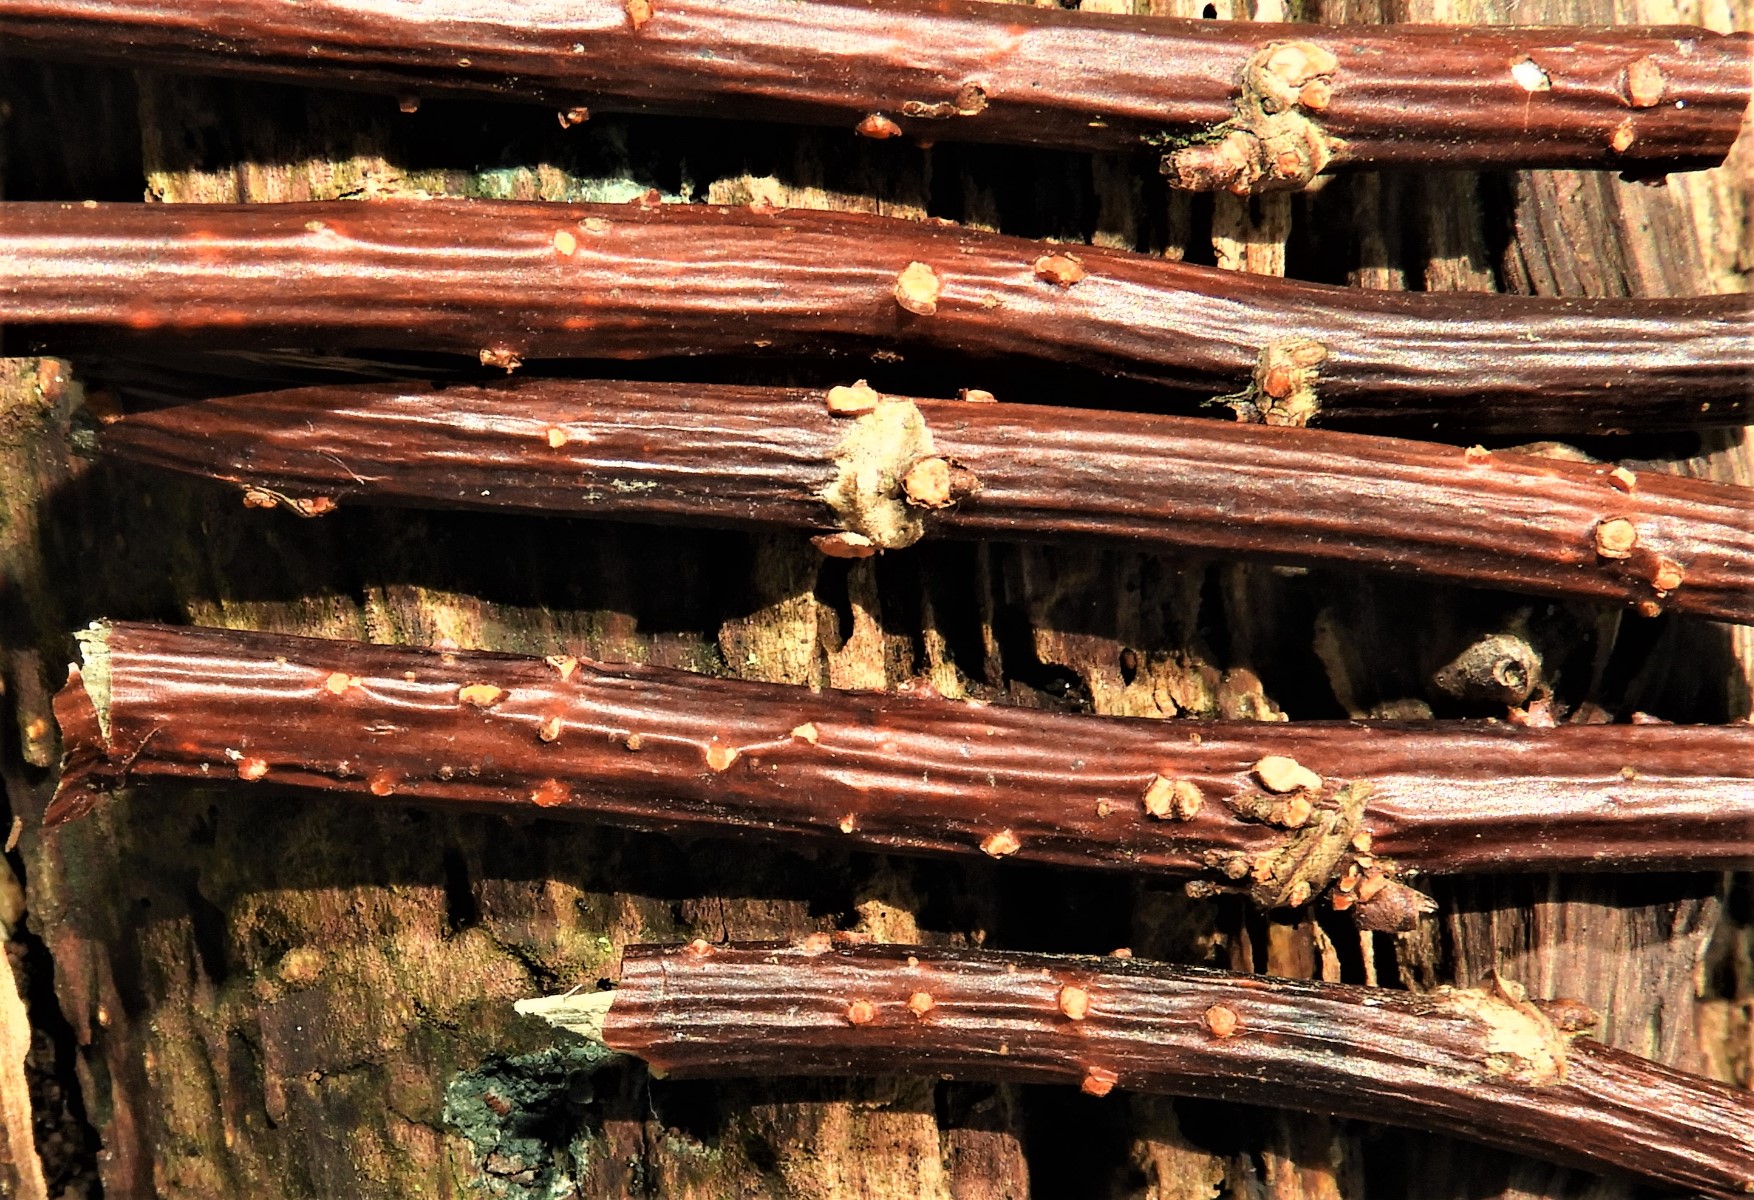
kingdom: Fungi
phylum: Ascomycota
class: Sordariomycetes
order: Hypocreales
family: Nectriaceae
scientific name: Nectriaceae
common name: cinnobersvampfamilien
